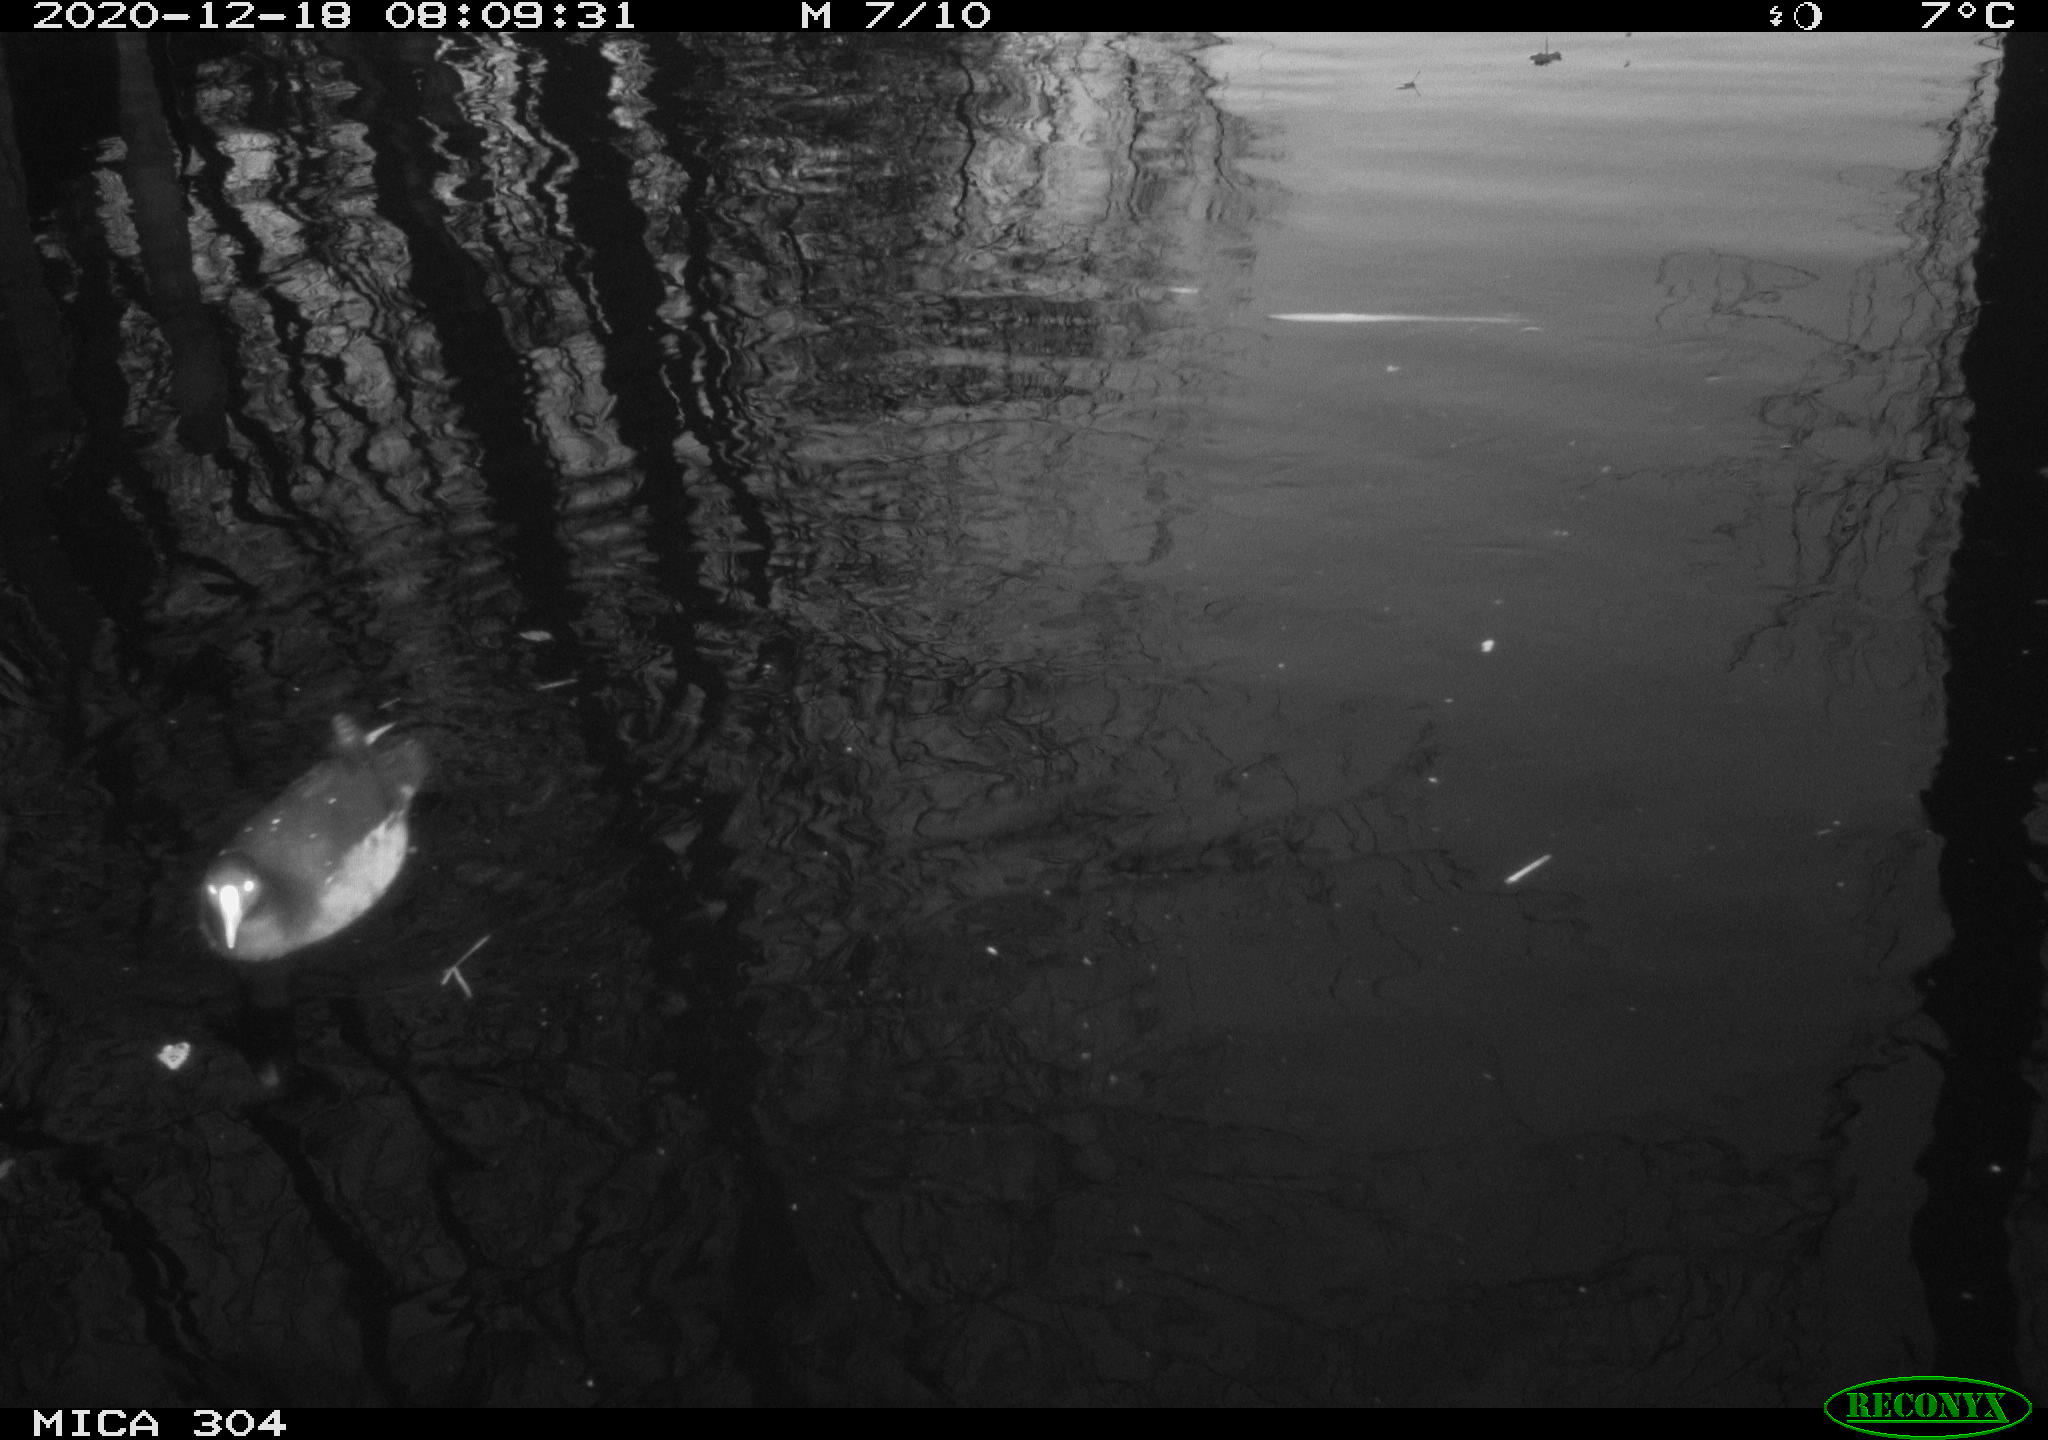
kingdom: Animalia
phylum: Chordata
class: Aves
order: Gruiformes
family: Rallidae
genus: Gallinula
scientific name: Gallinula chloropus
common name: Common moorhen
